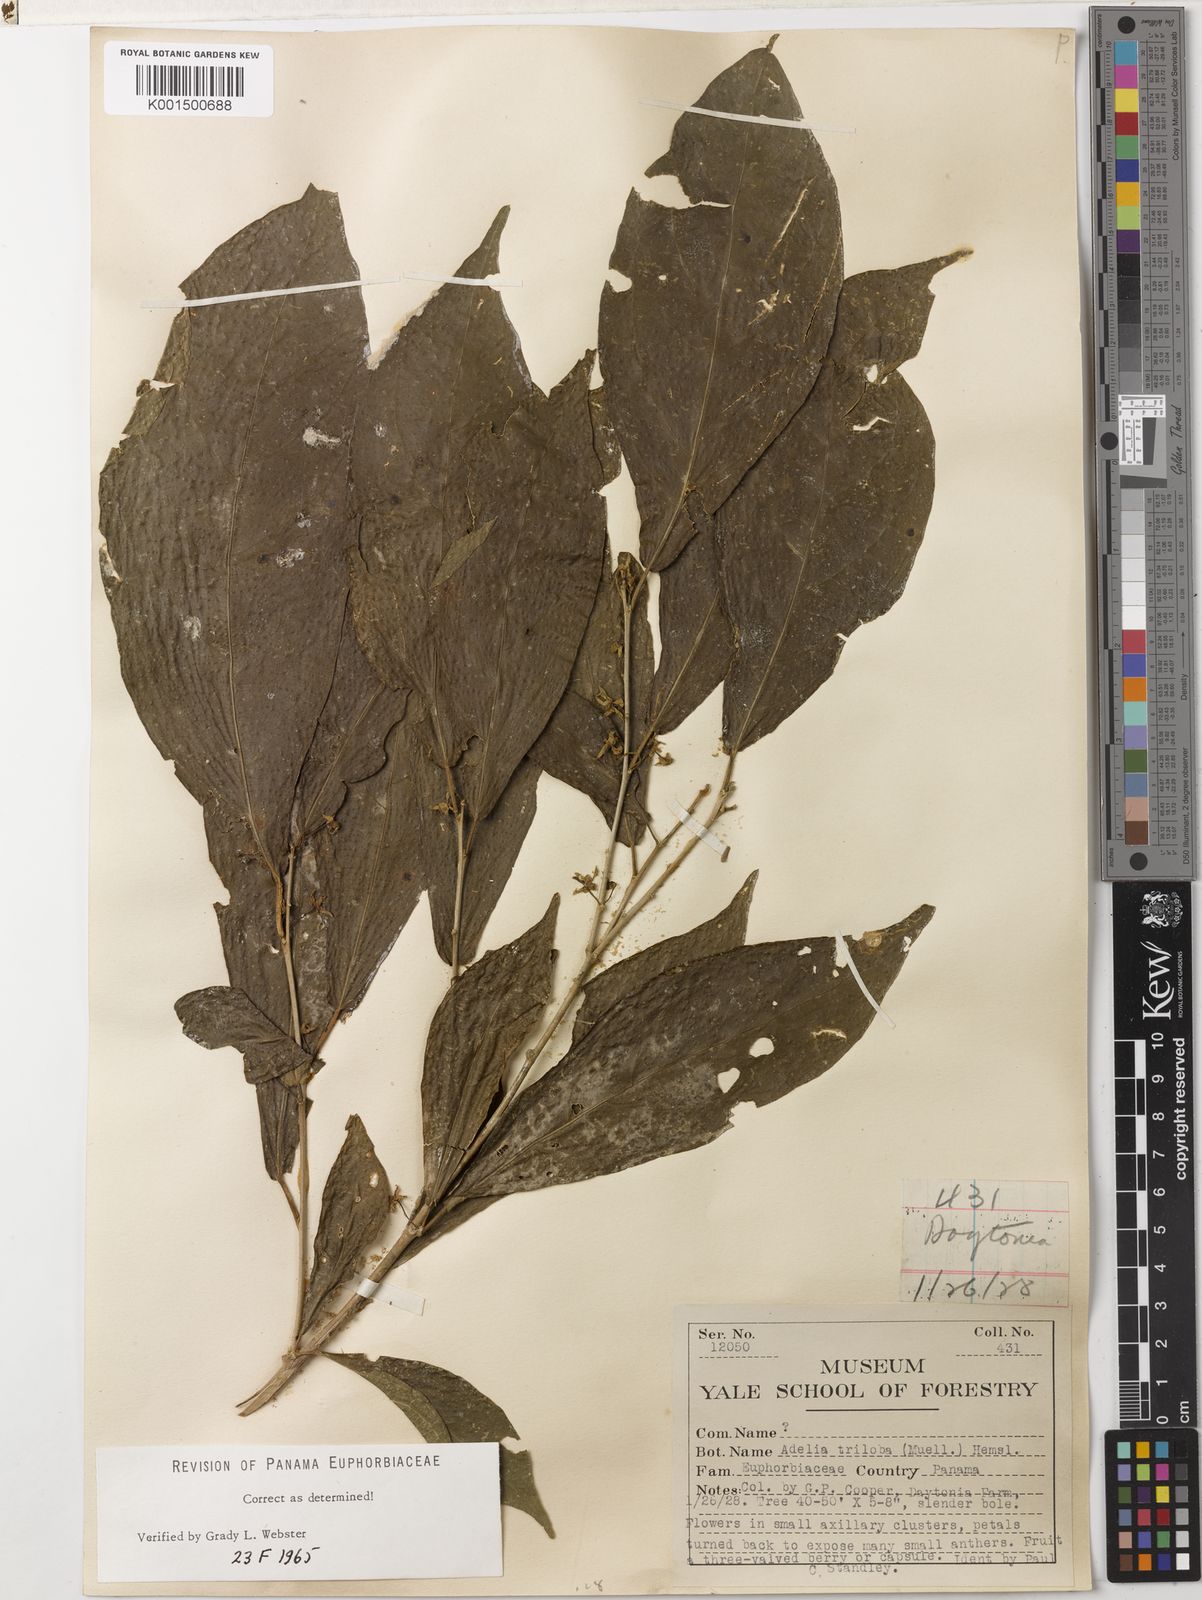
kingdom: Plantae
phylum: Tracheophyta
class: Magnoliopsida
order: Malpighiales
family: Euphorbiaceae
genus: Adelia
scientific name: Adelia triloba
